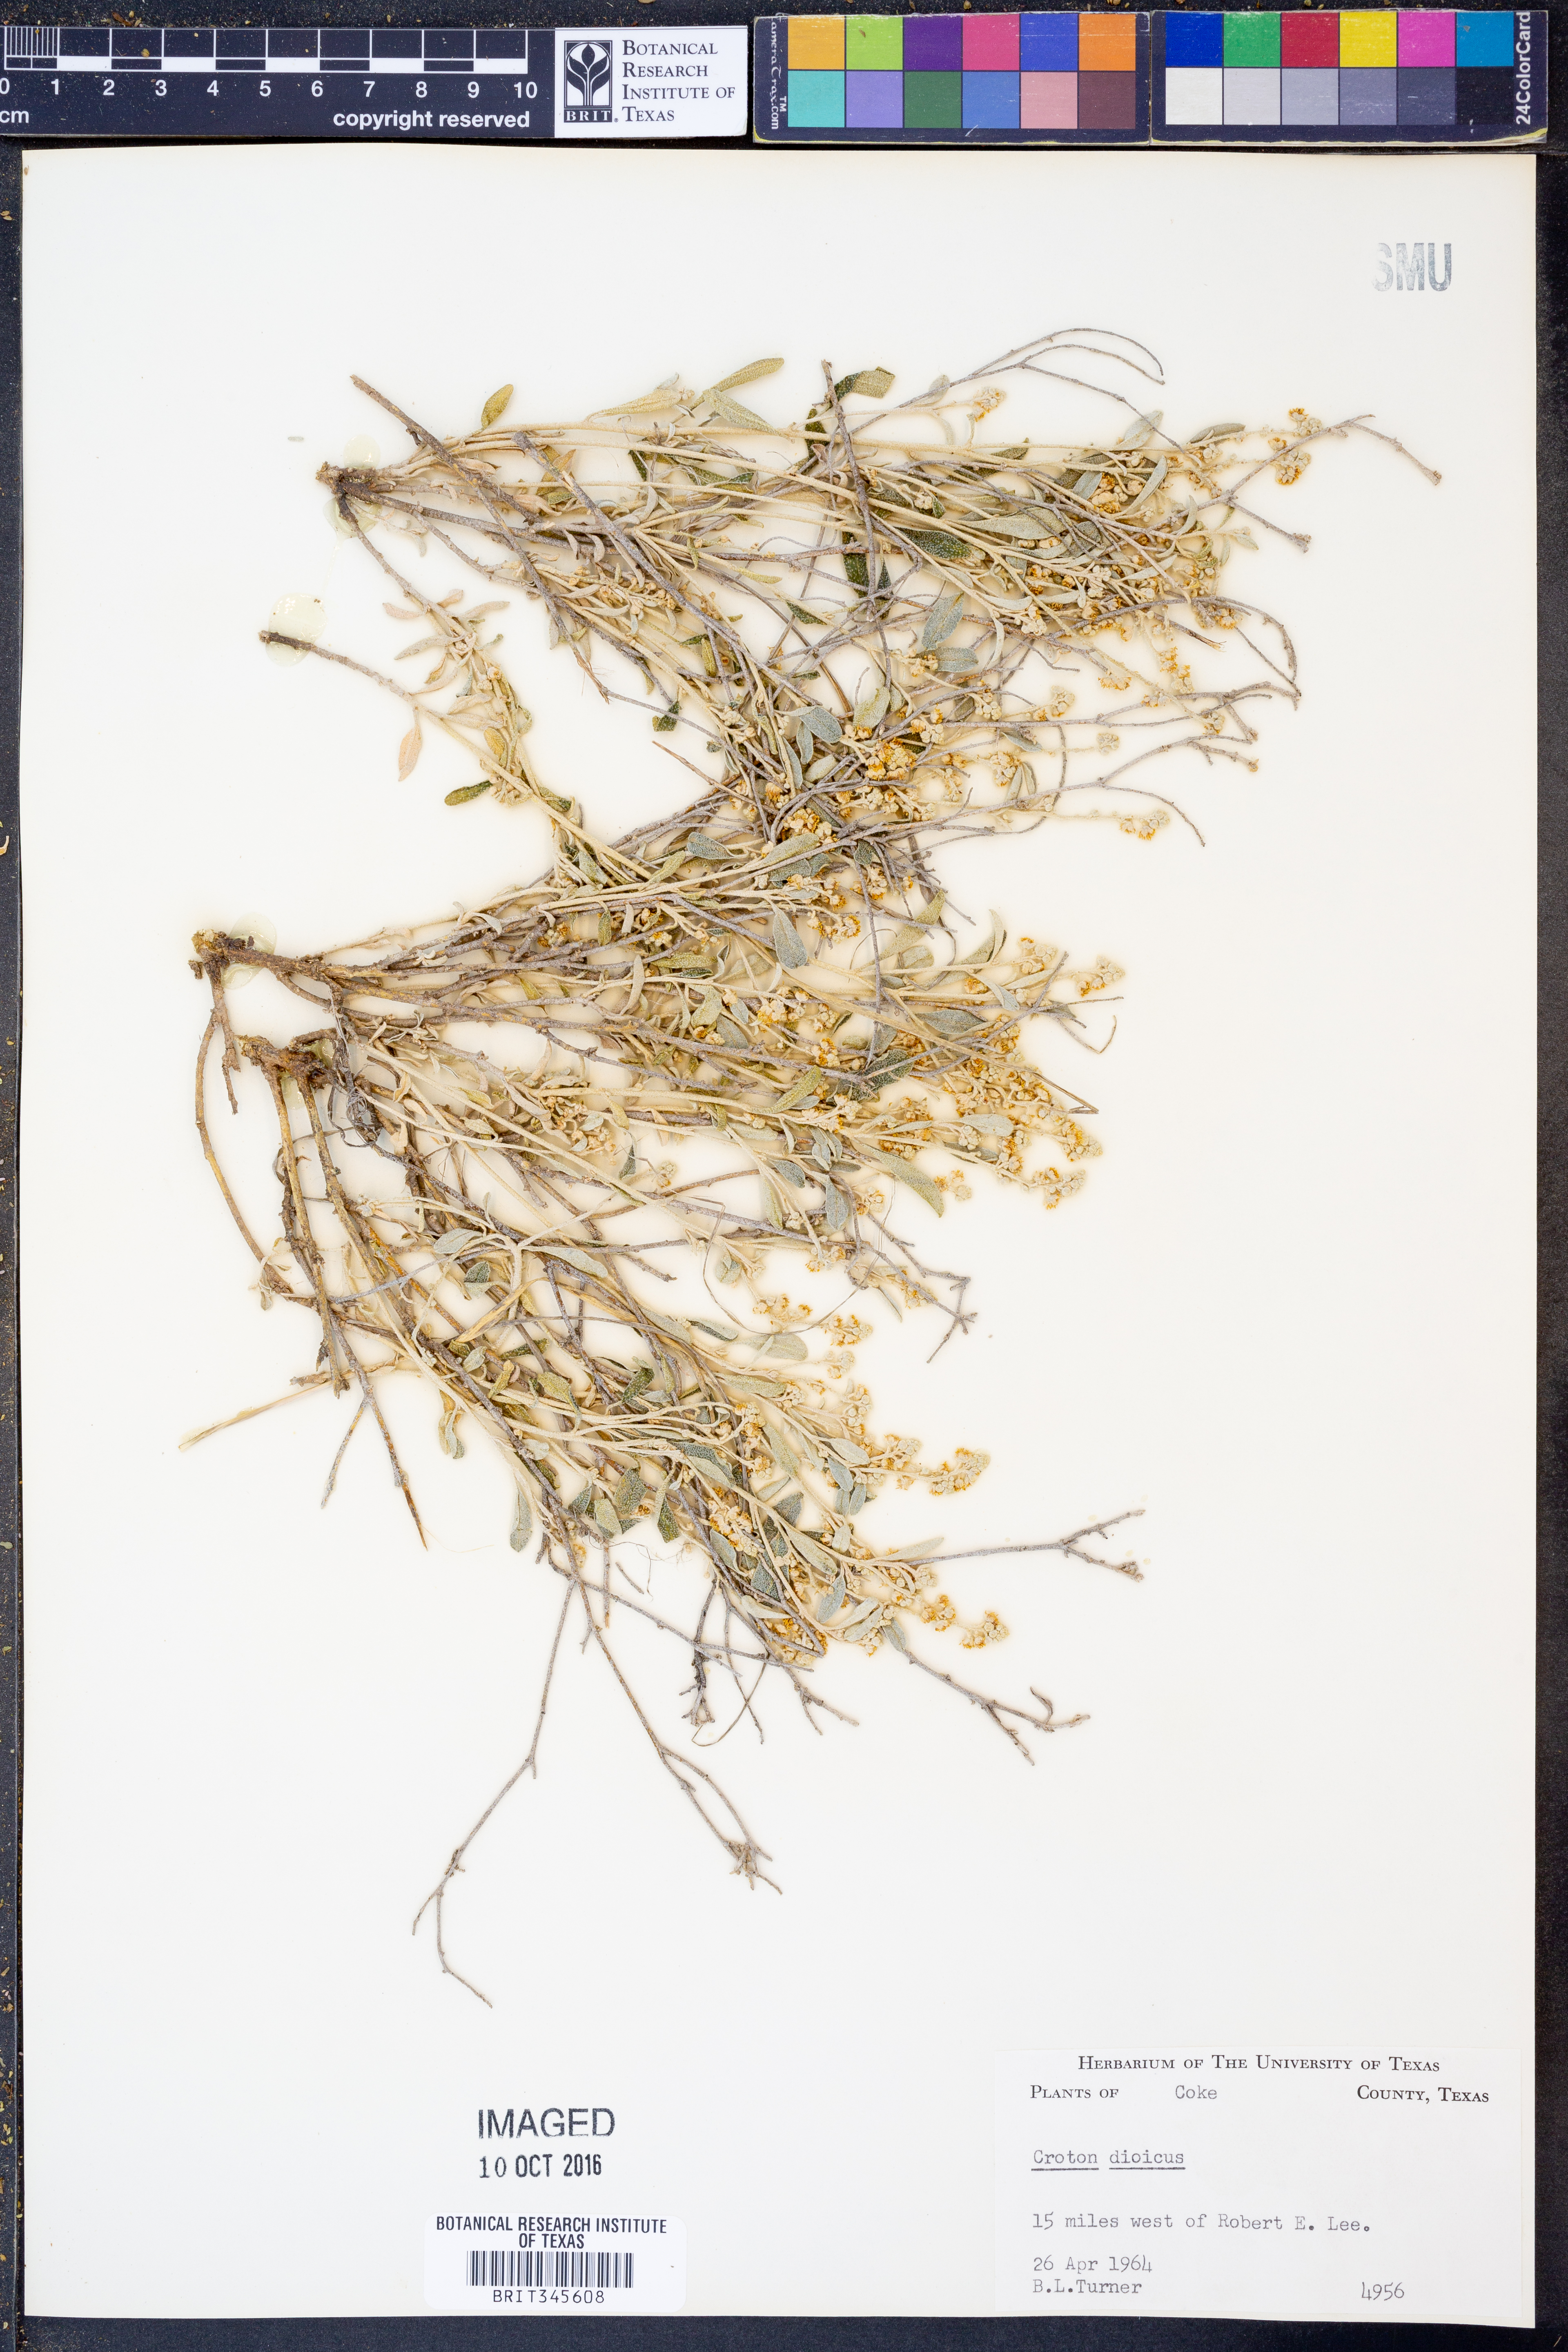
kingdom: Plantae
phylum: Tracheophyta
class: Magnoliopsida
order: Malpighiales
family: Euphorbiaceae
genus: Croton
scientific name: Croton dioicus
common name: Grassland croton
